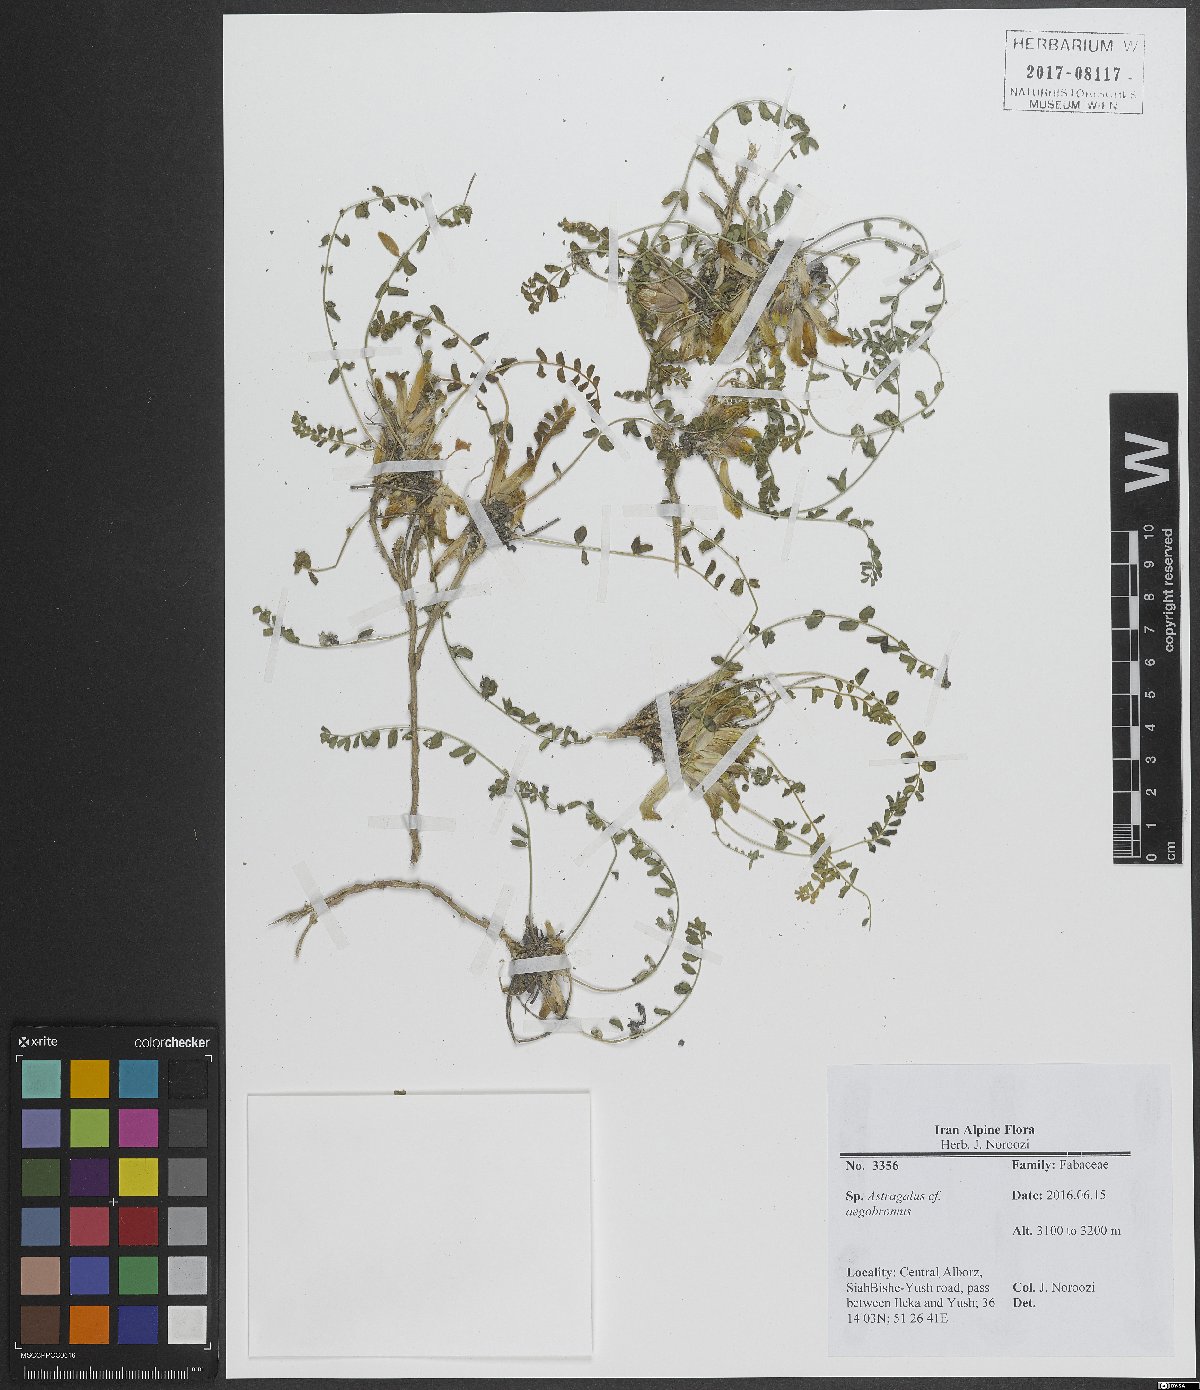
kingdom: Plantae
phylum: Tracheophyta
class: Magnoliopsida
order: Fabales
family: Fabaceae
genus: Astragalus
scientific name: Astragalus aegobromus
